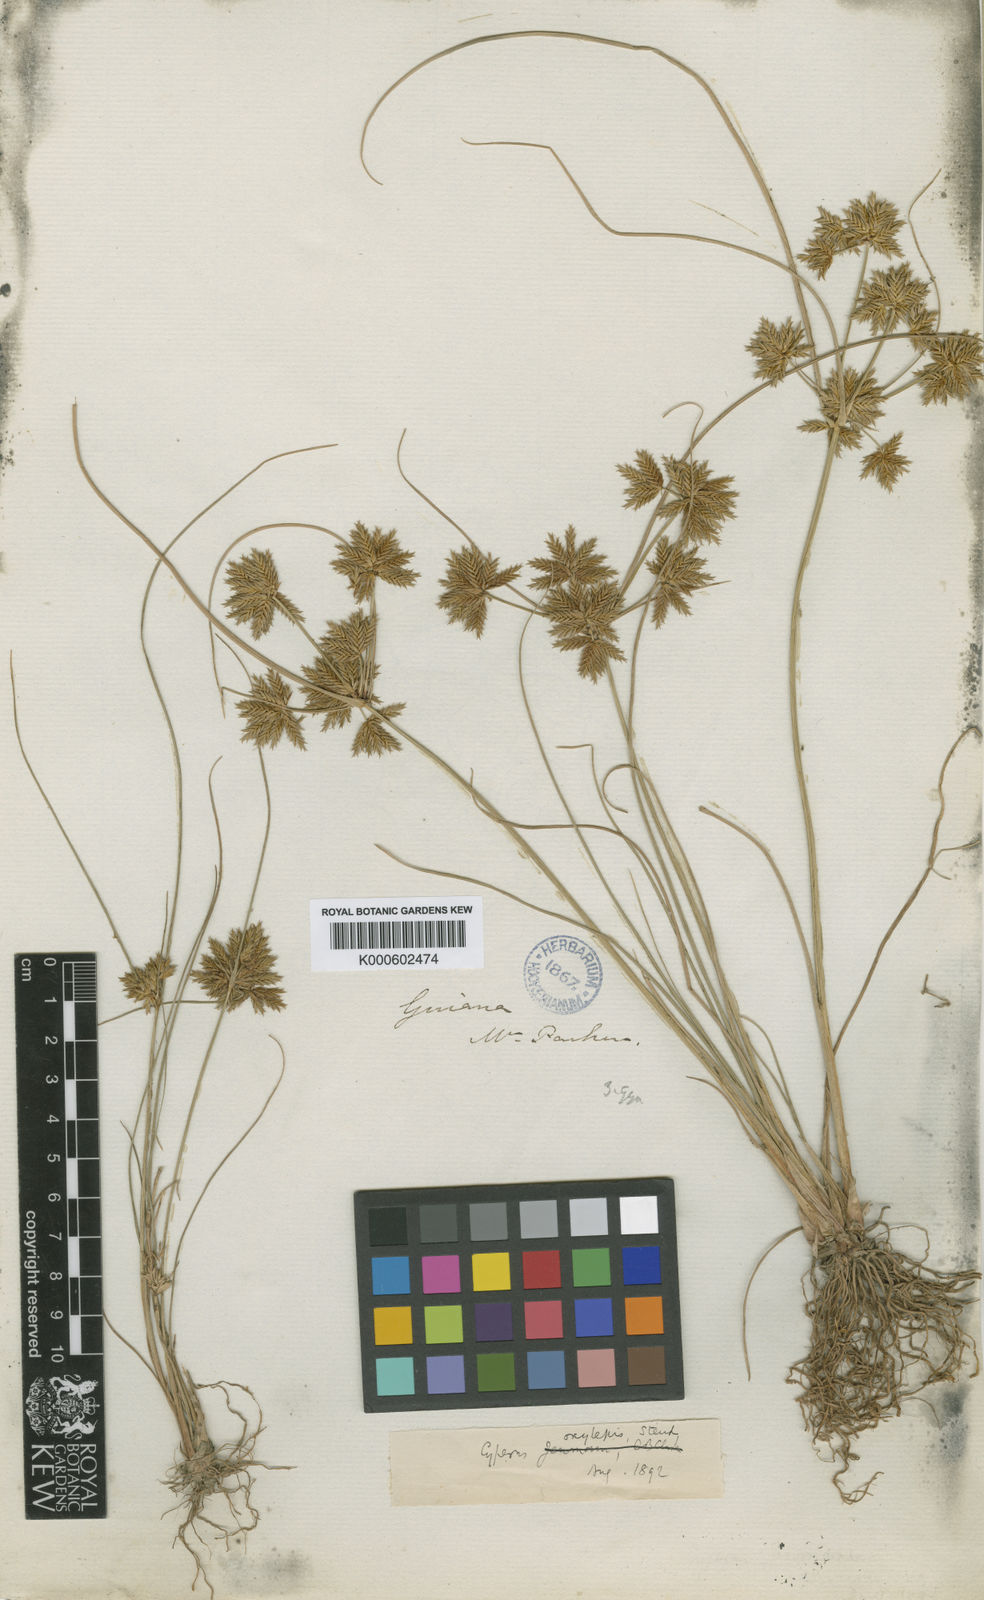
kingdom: Plantae
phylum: Tracheophyta
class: Liliopsida
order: Poales
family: Cyperaceae
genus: Cyperus
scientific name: Cyperus oxylepis
